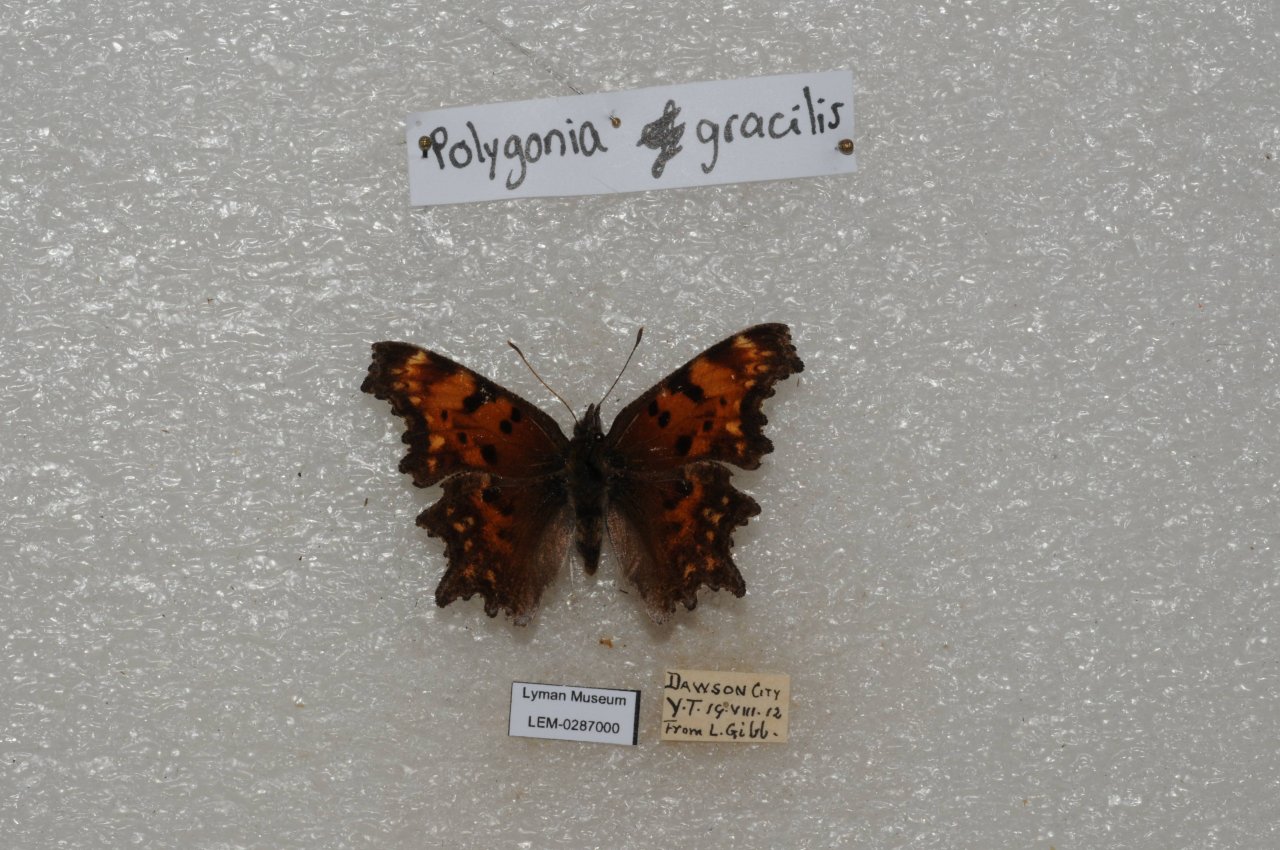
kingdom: Animalia
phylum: Arthropoda
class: Insecta
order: Lepidoptera
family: Nymphalidae
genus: Polygonia
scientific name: Polygonia gracilis
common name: Hoary Comma
